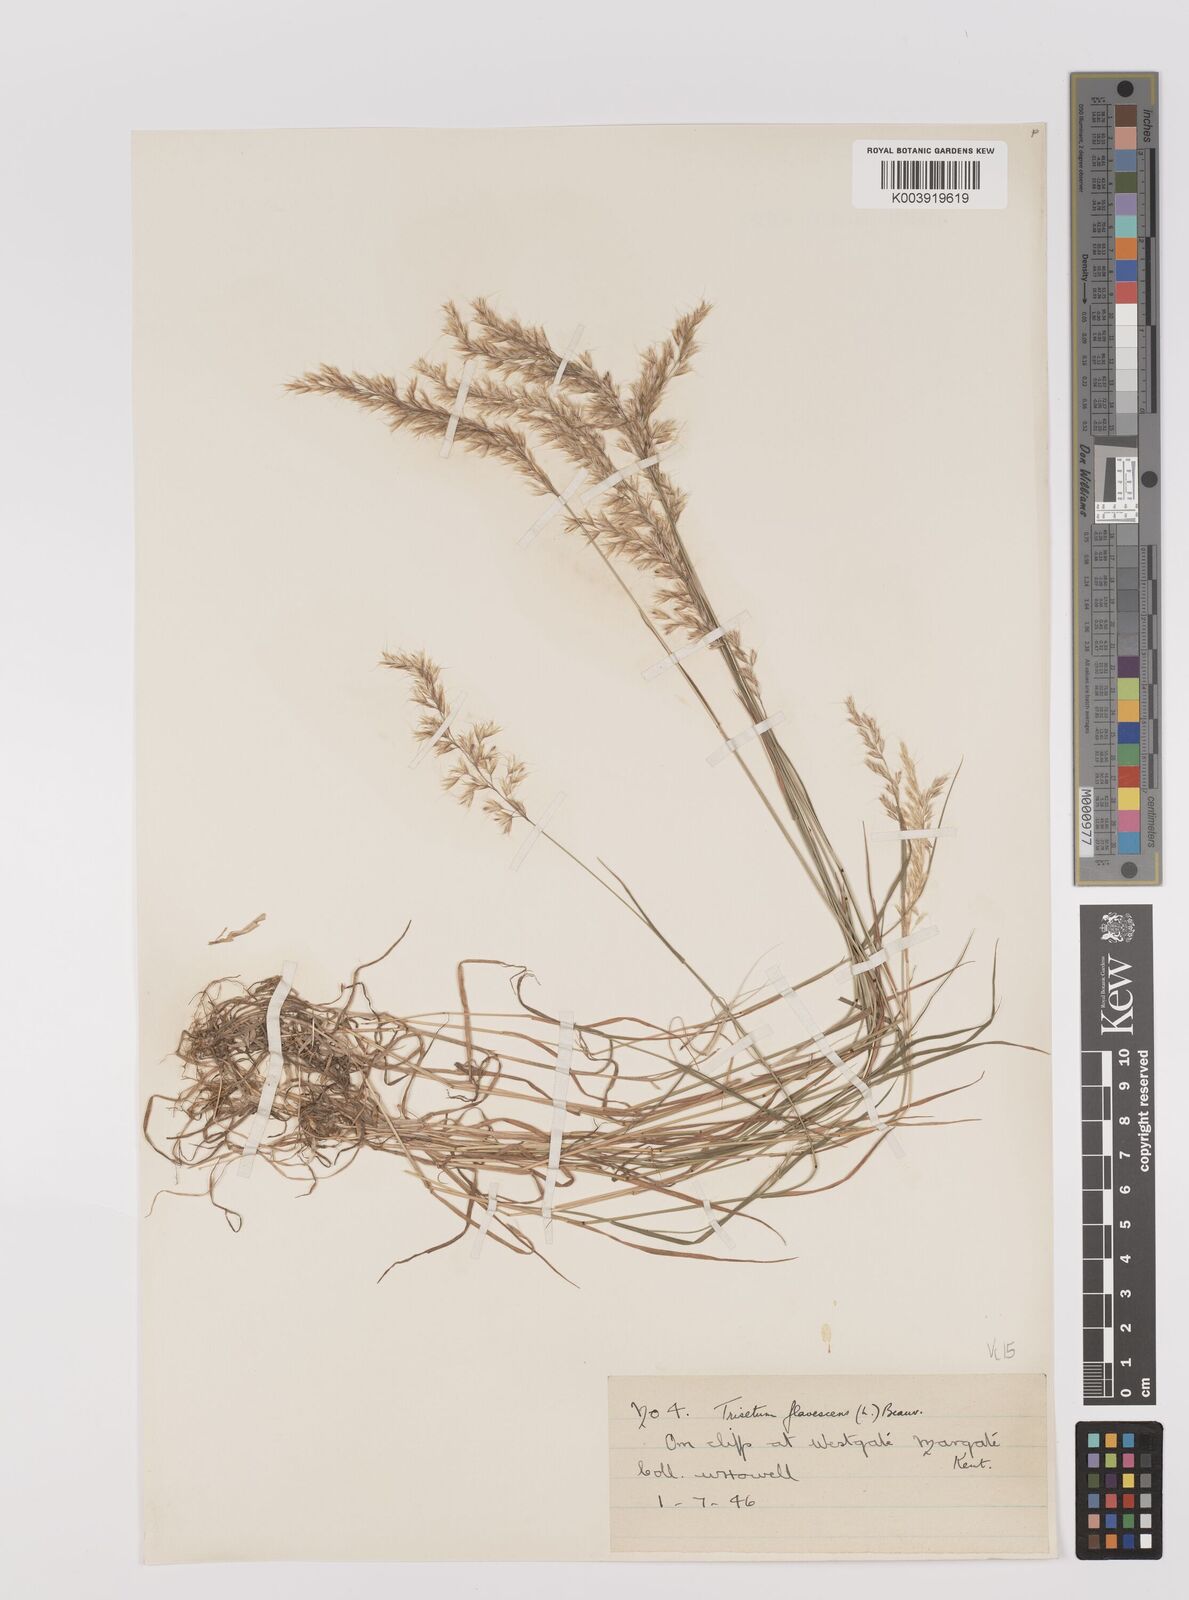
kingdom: Plantae
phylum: Tracheophyta
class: Liliopsida
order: Poales
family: Poaceae
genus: Trisetum
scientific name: Trisetum flavescens
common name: Yellow oat-grass
